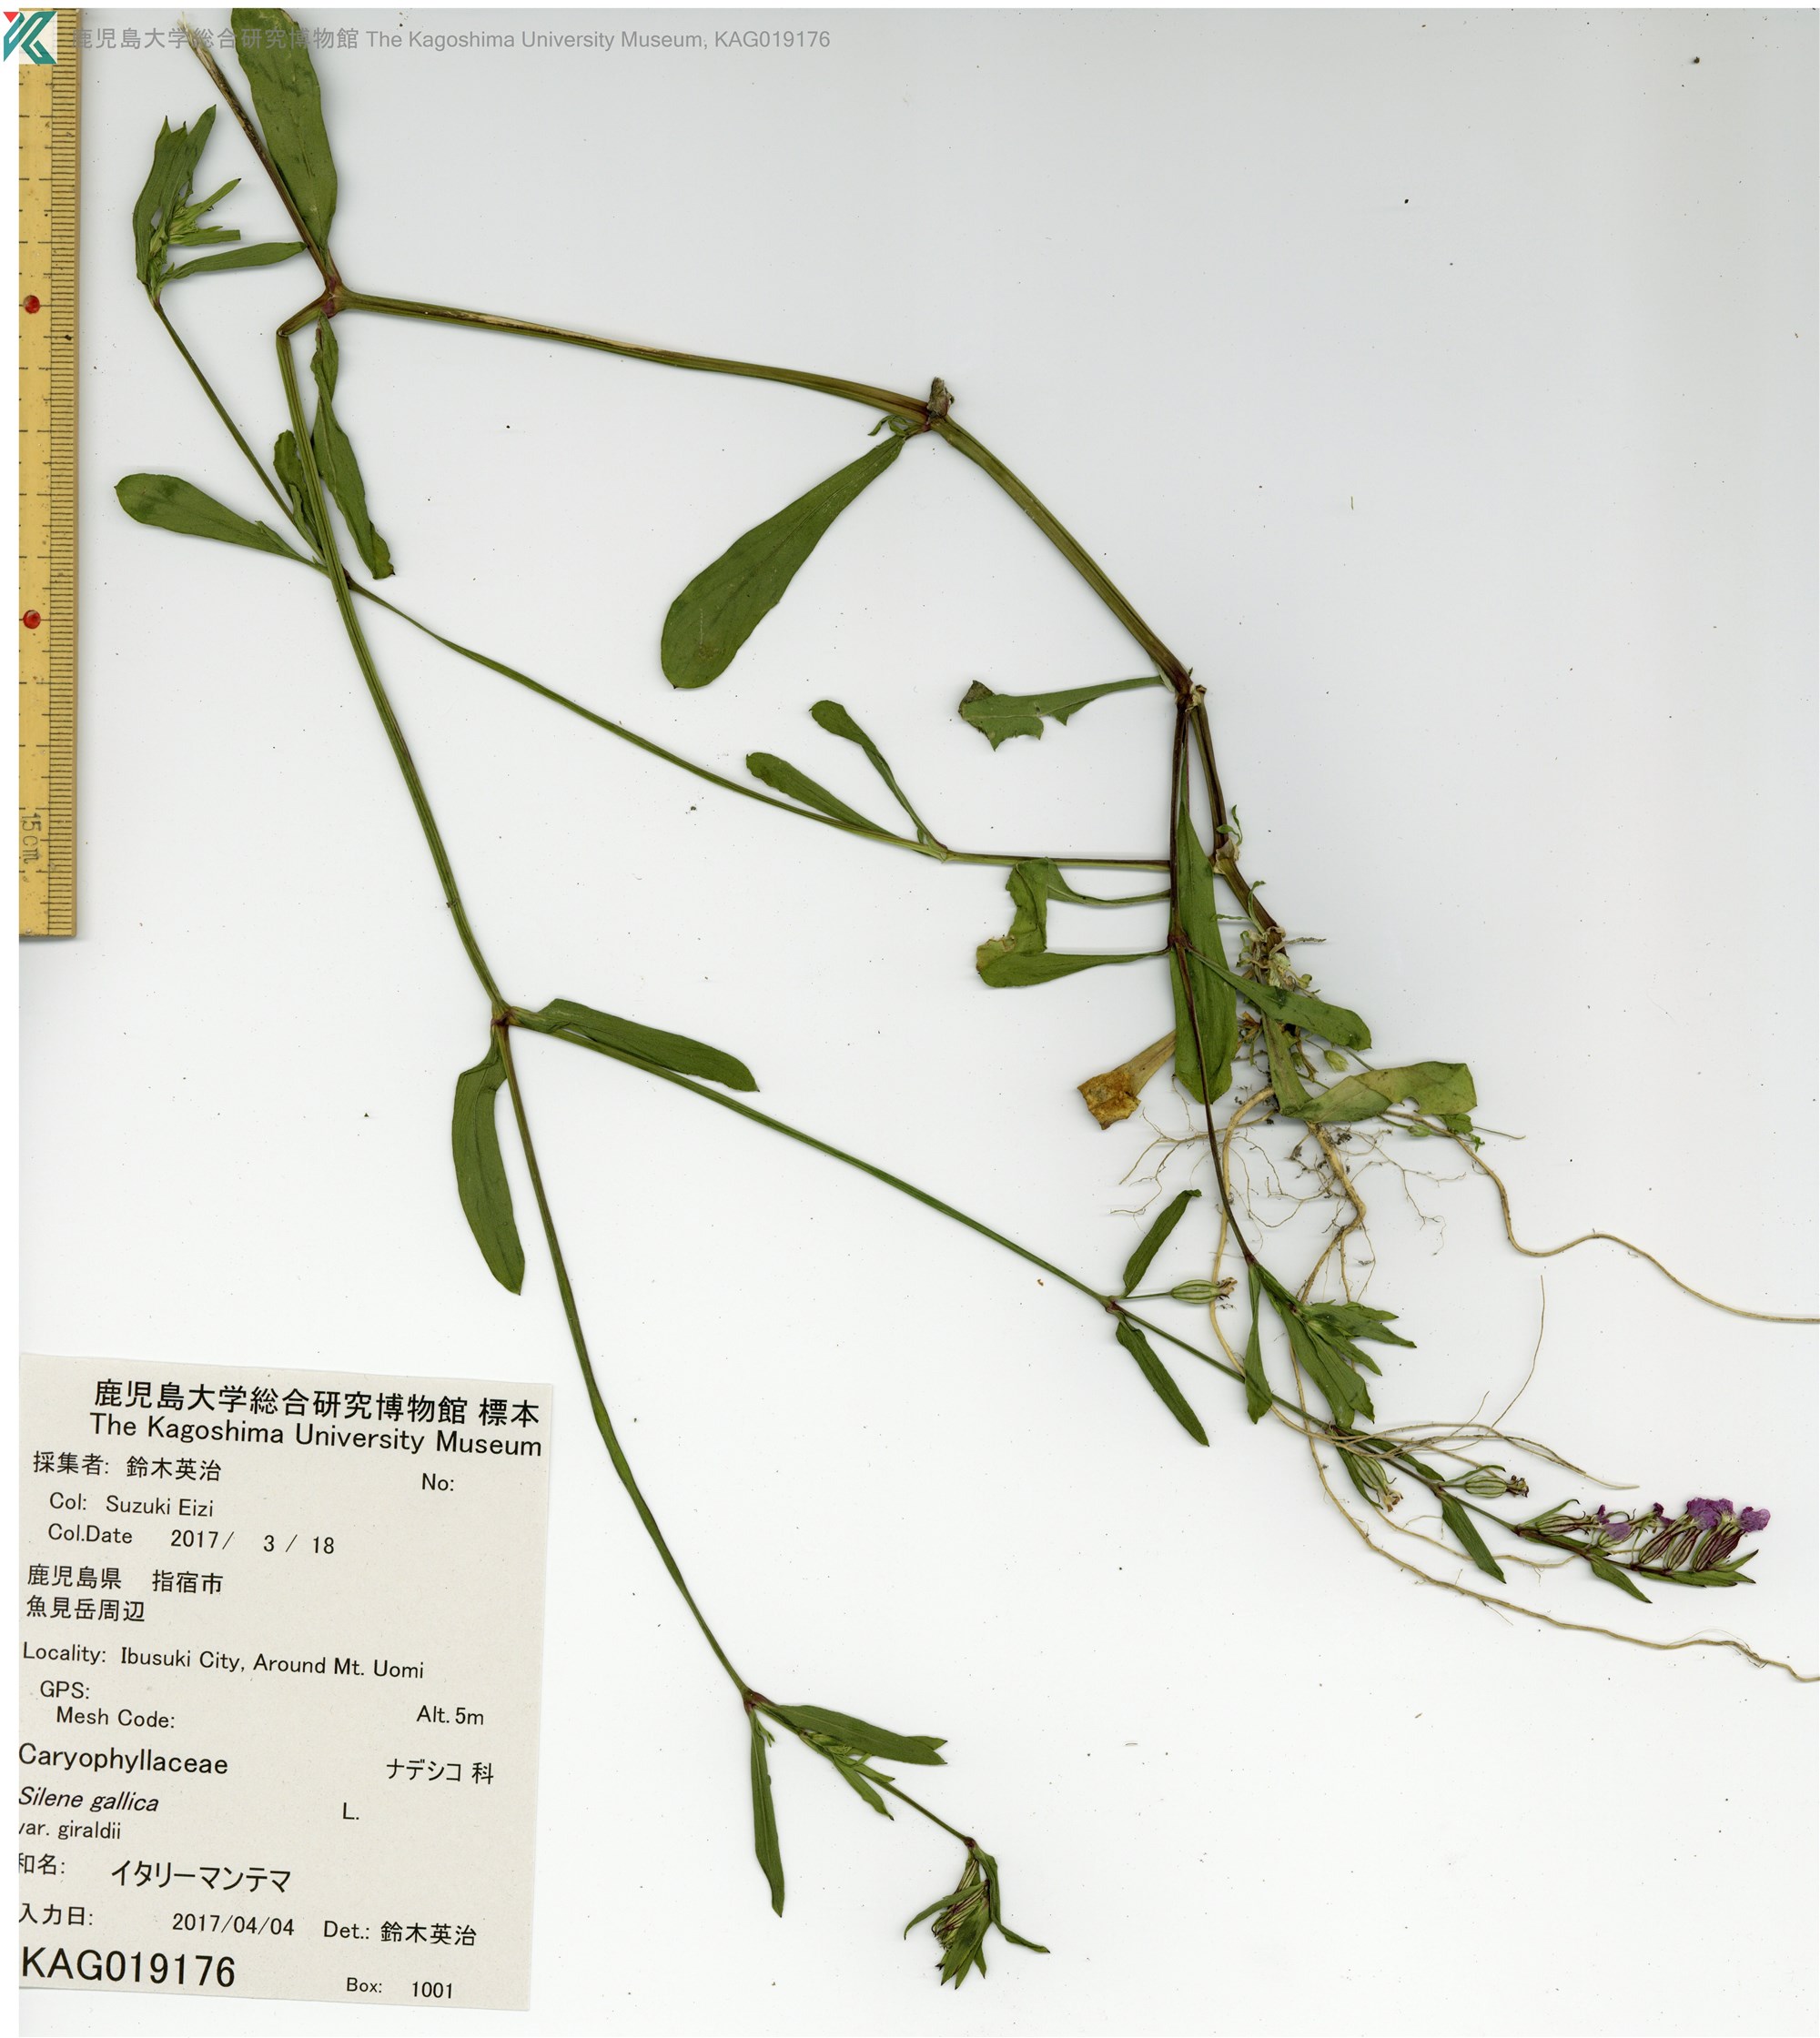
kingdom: Plantae
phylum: Tracheophyta
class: Magnoliopsida
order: Caryophyllales
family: Caryophyllaceae
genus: Silene
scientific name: Silene gallica
